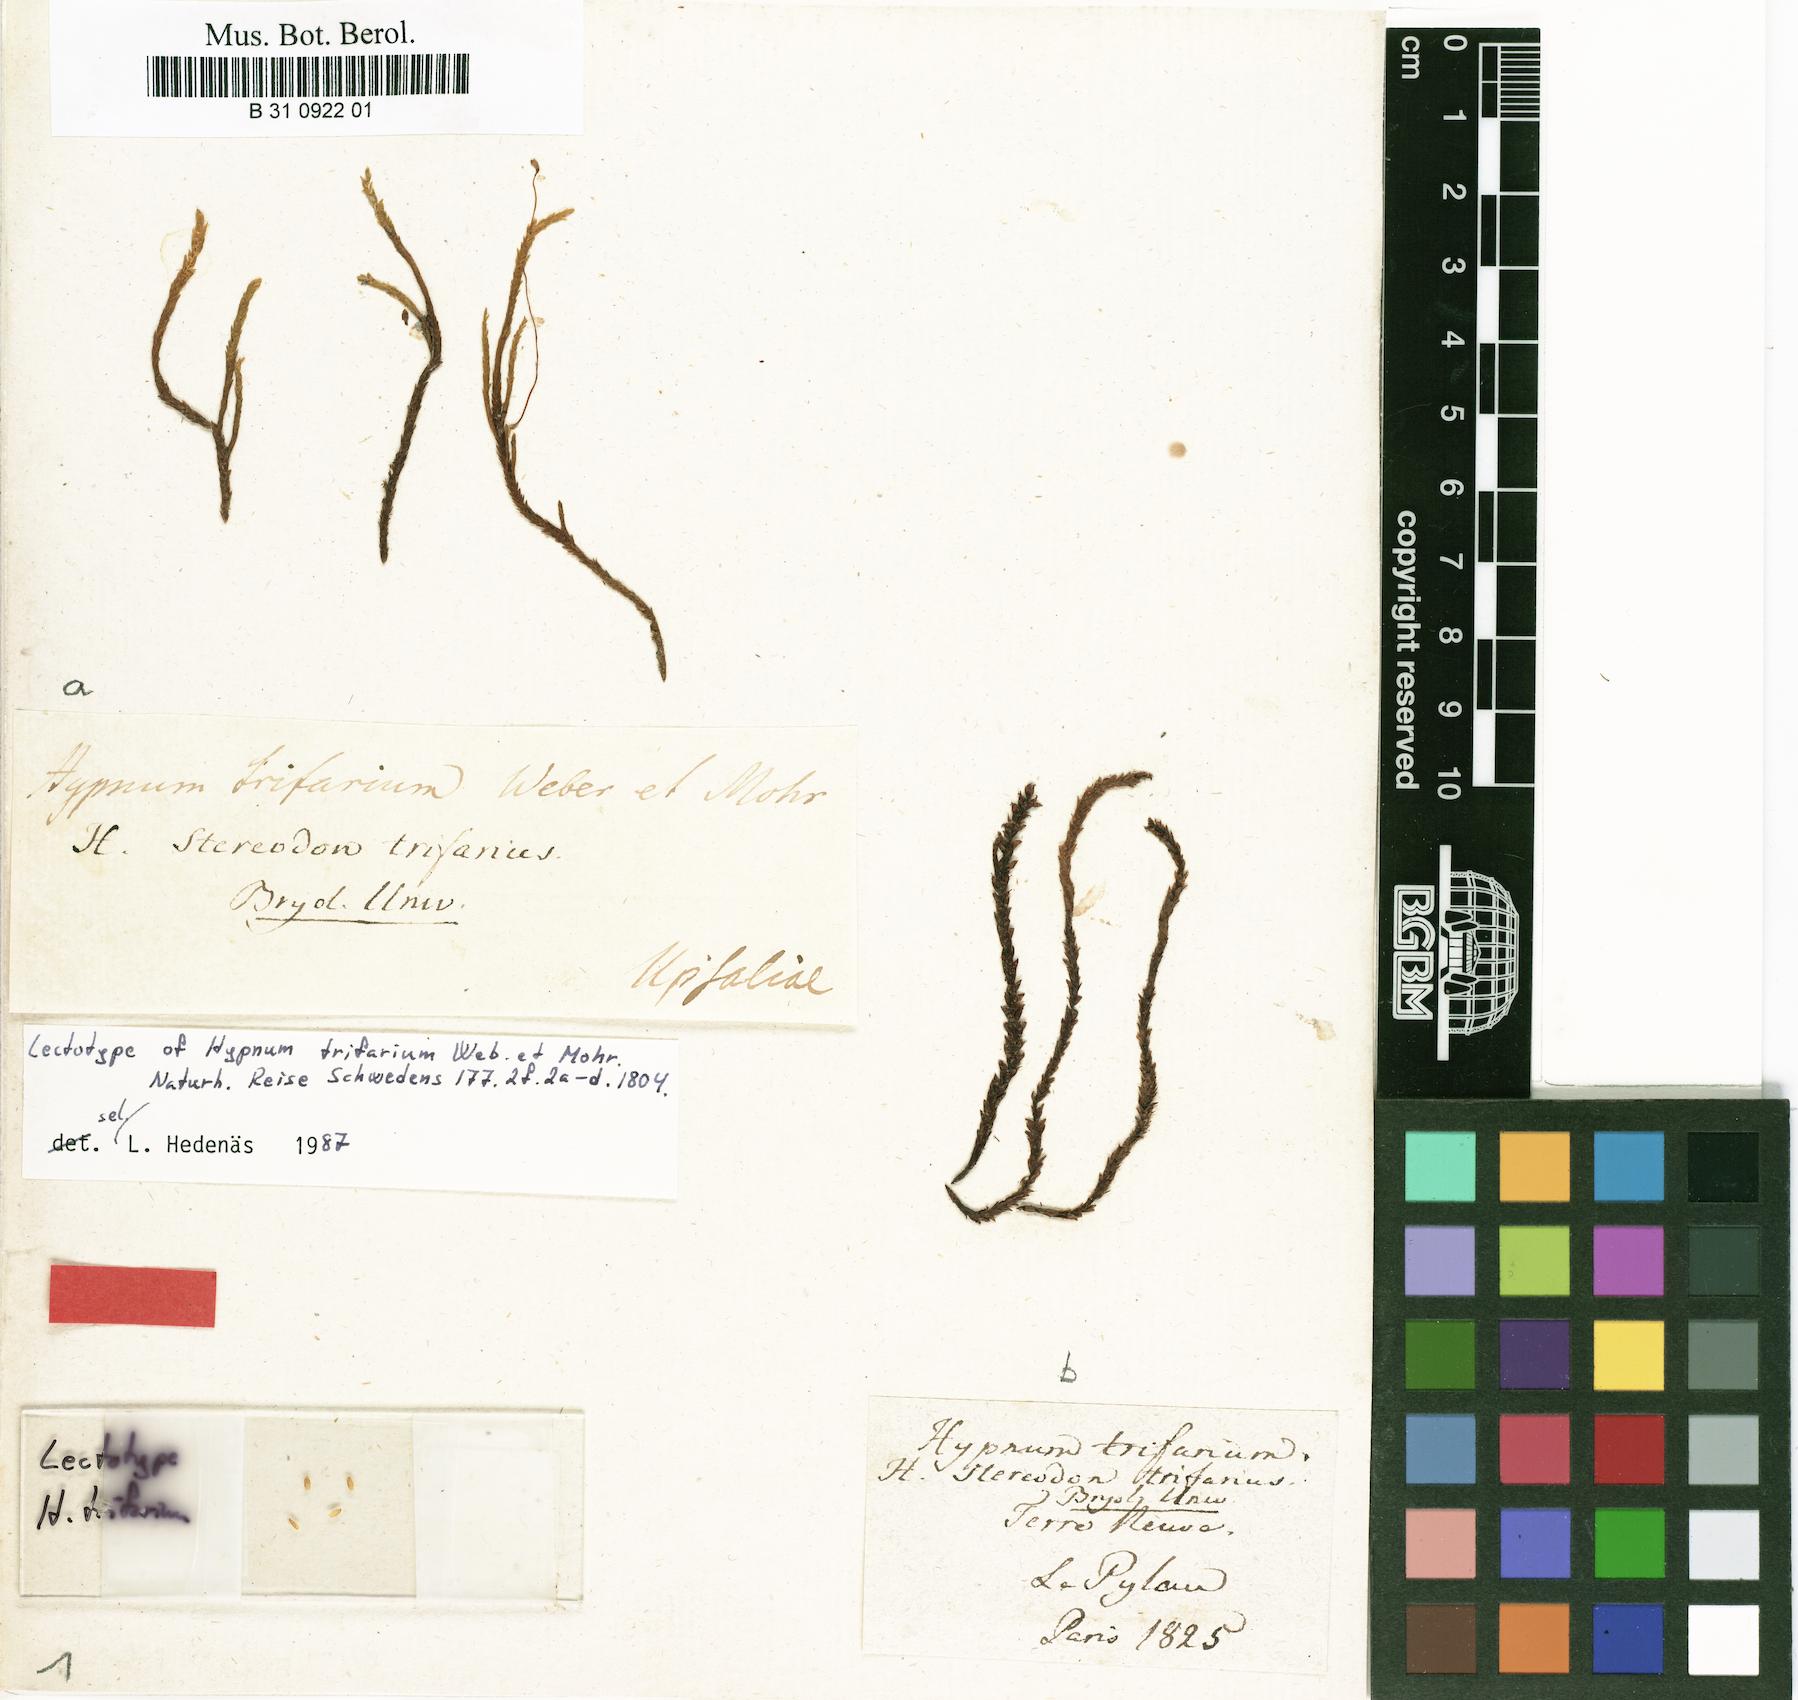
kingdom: Plantae
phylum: Bryophyta
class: Bryopsida
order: Hypnales
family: Amblystegiaceae
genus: Drepanocladus
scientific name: Drepanocladus trifarius
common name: Calliergon moss
